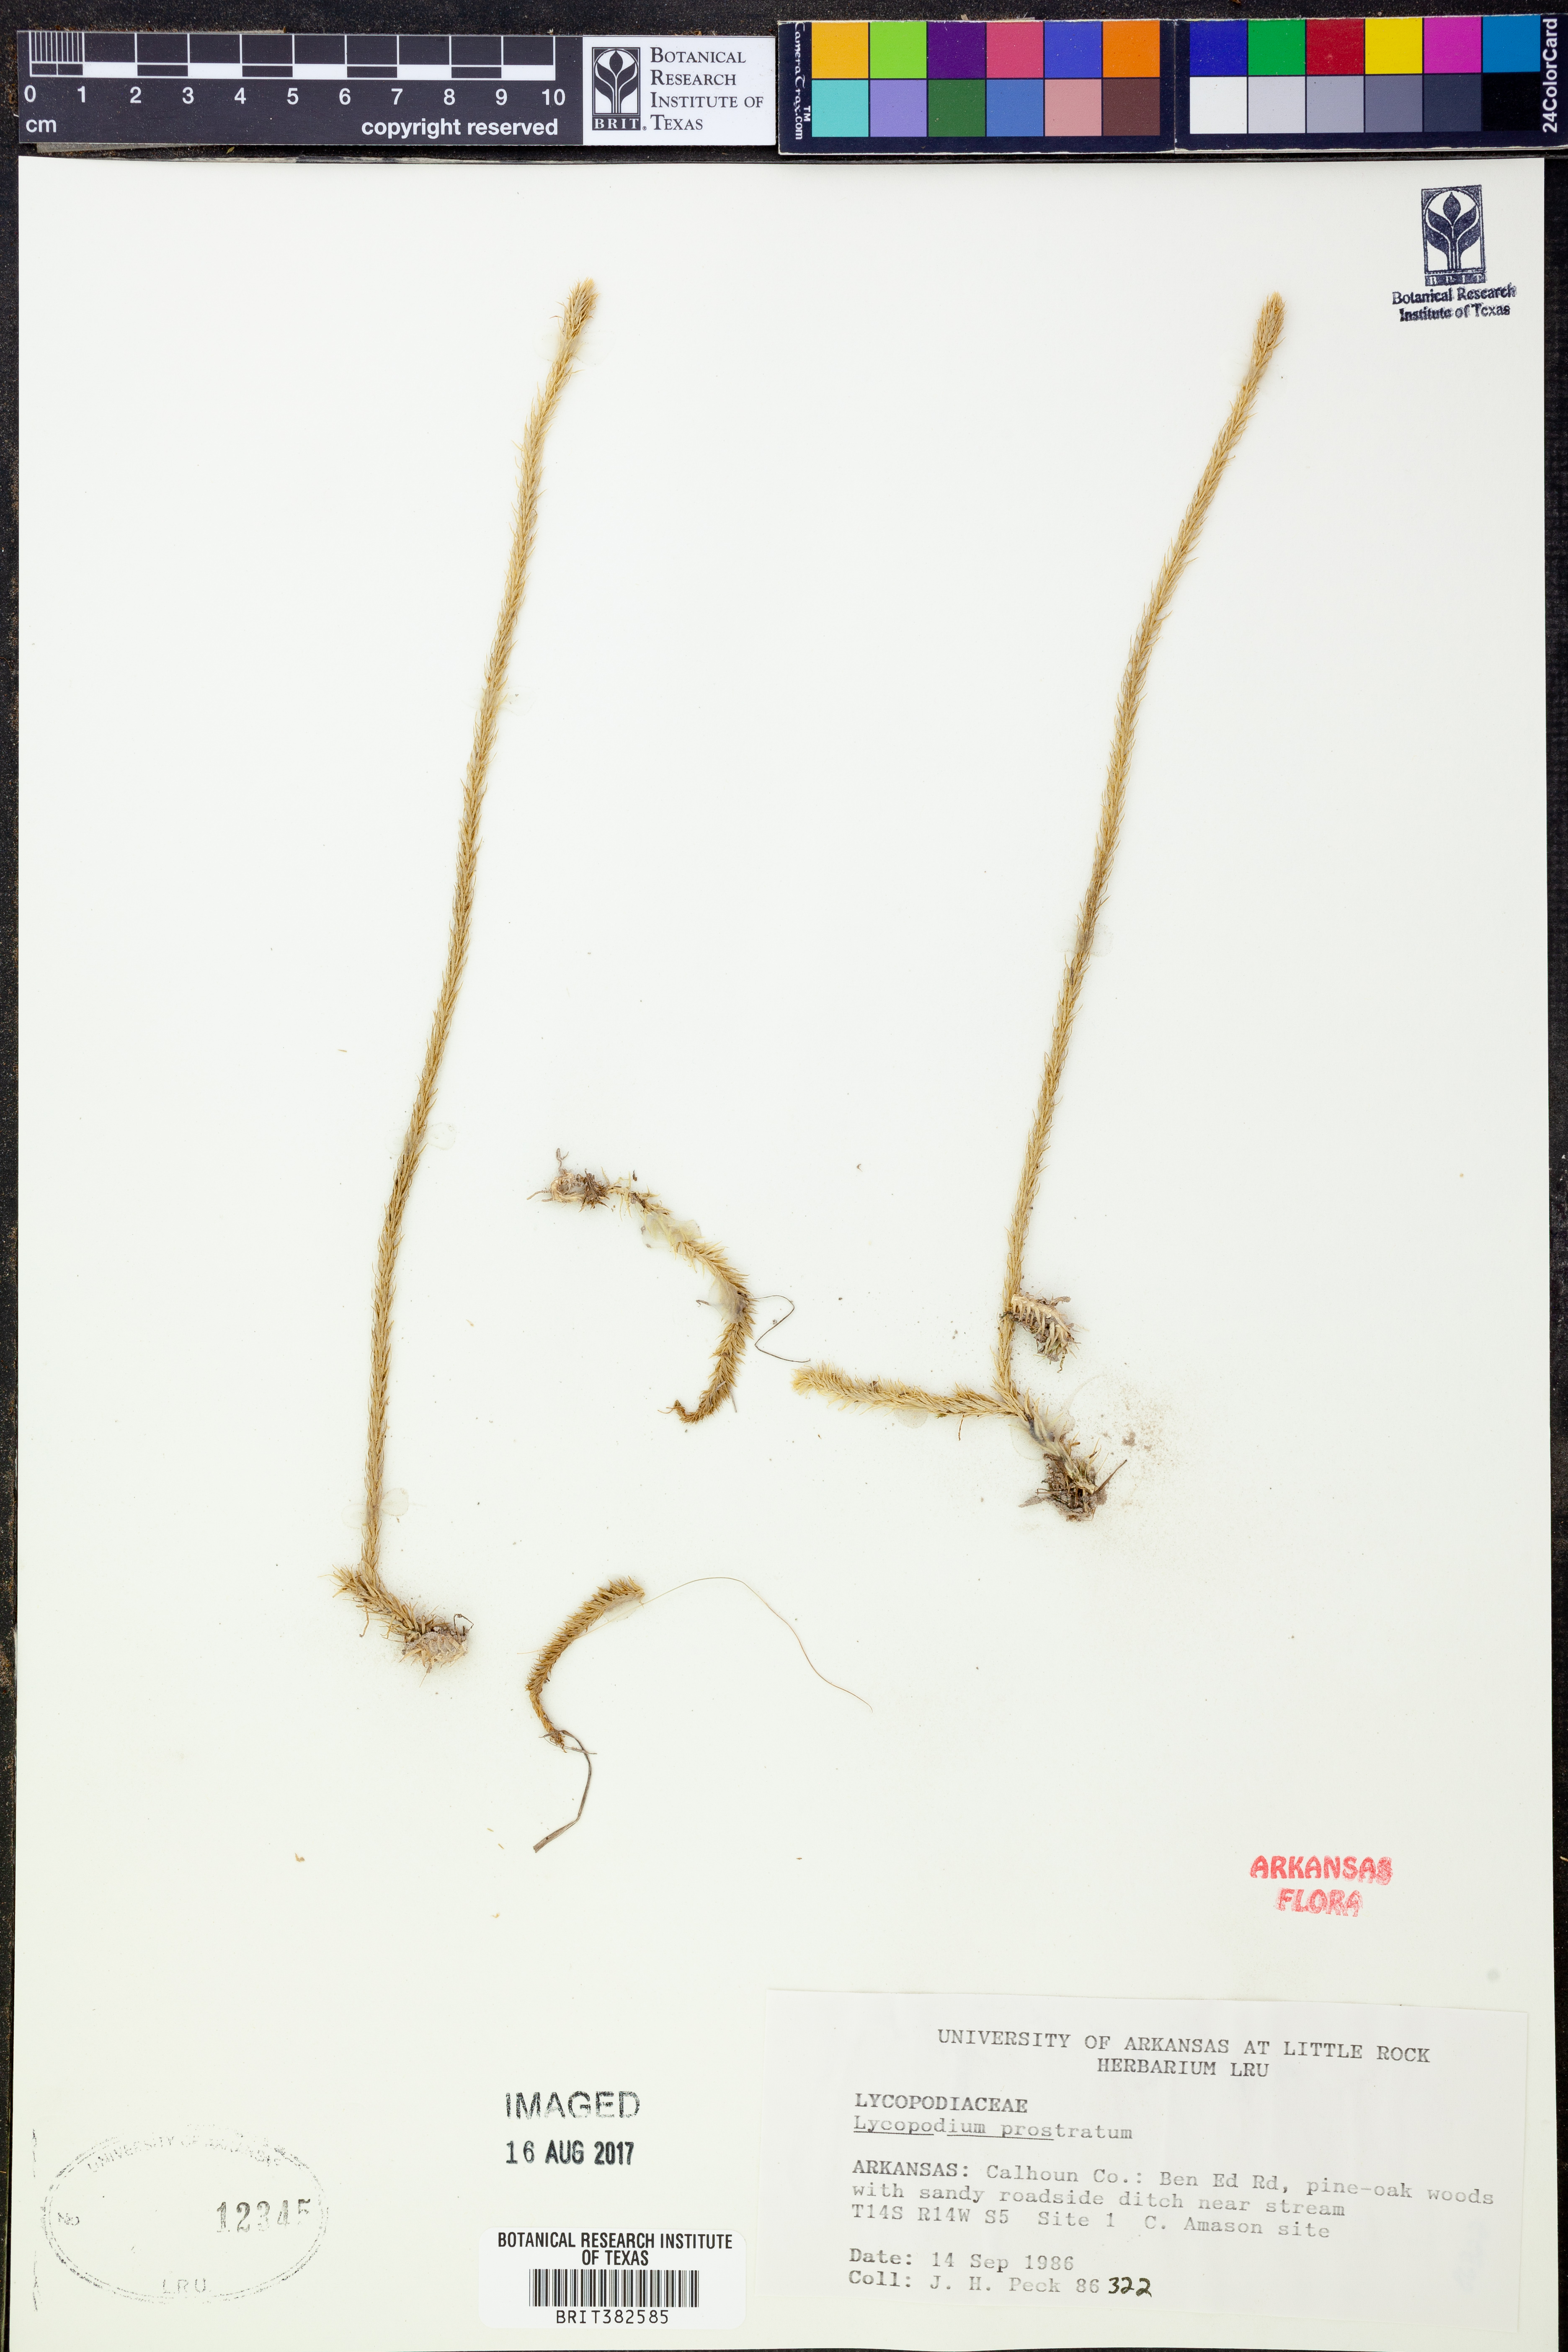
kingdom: Plantae
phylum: Tracheophyta
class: Lycopodiopsida
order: Lycopodiales
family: Lycopodiaceae
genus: Lycopodiella
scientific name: Lycopodiella prostrata
